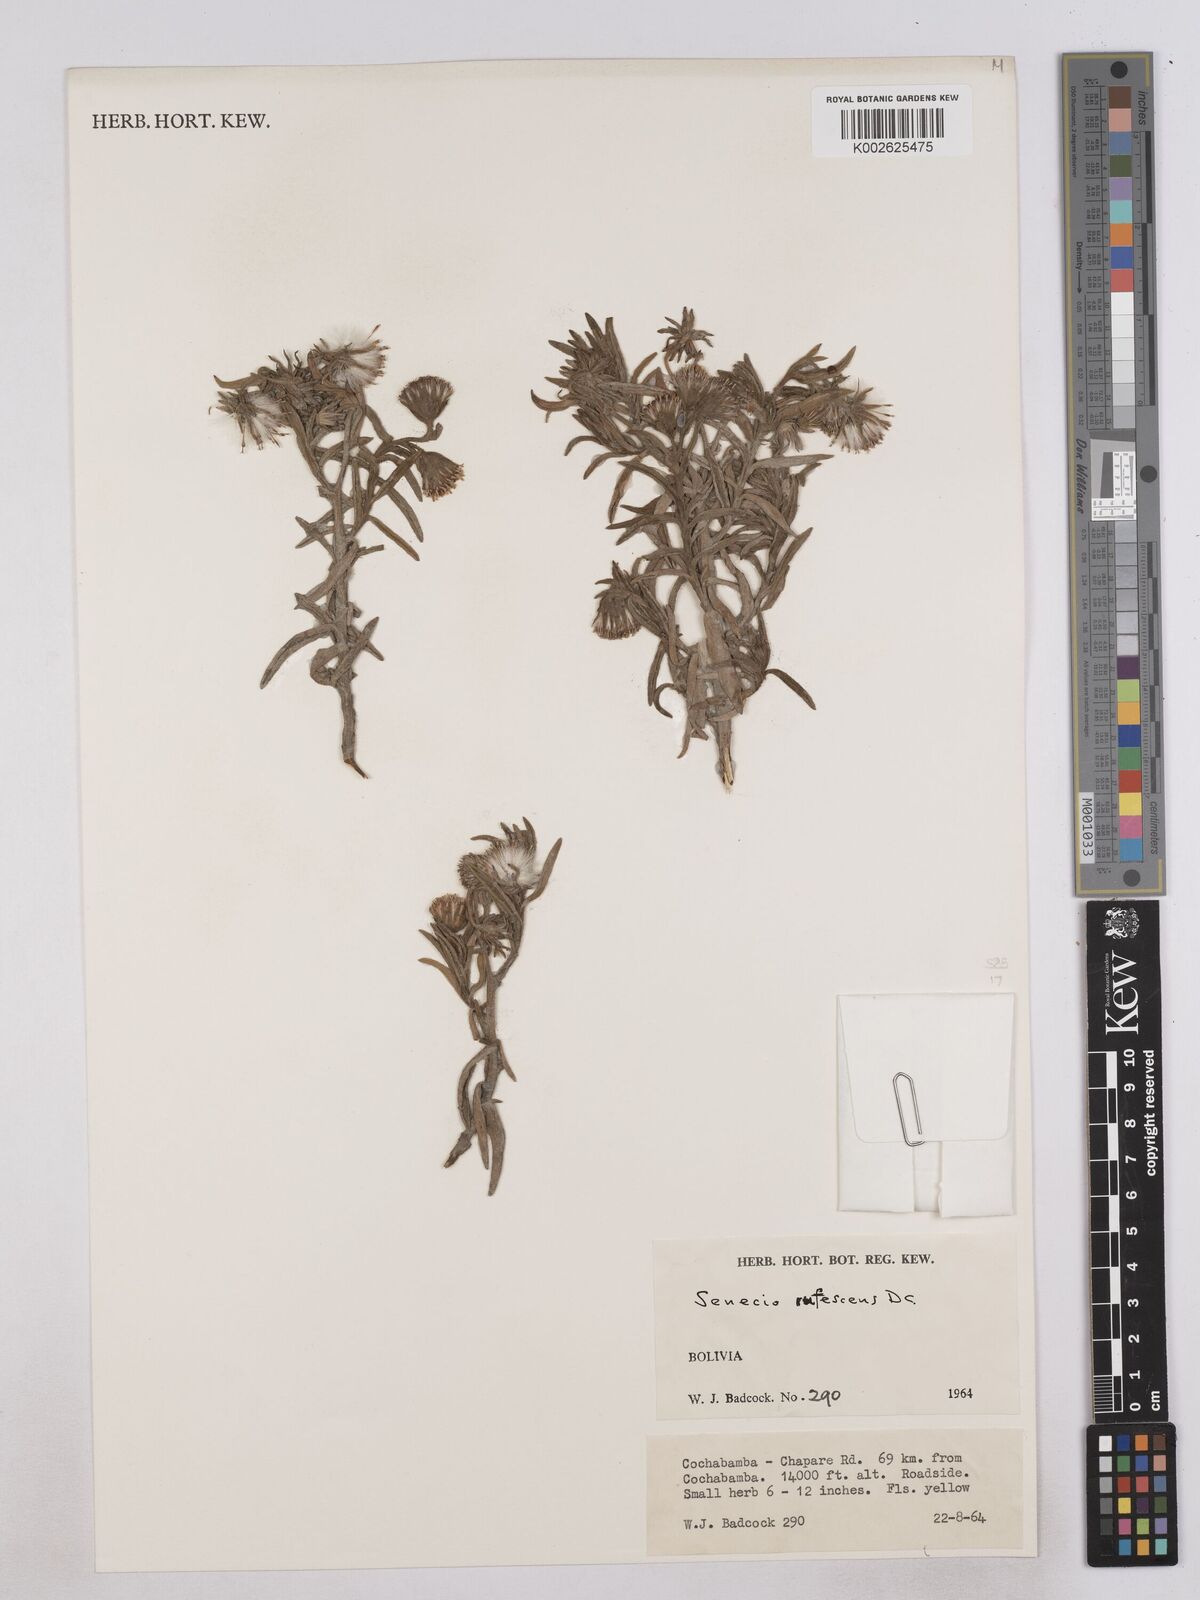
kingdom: Plantae
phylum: Tracheophyta
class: Magnoliopsida
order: Asterales
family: Asteraceae
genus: Senecio
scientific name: Senecio
